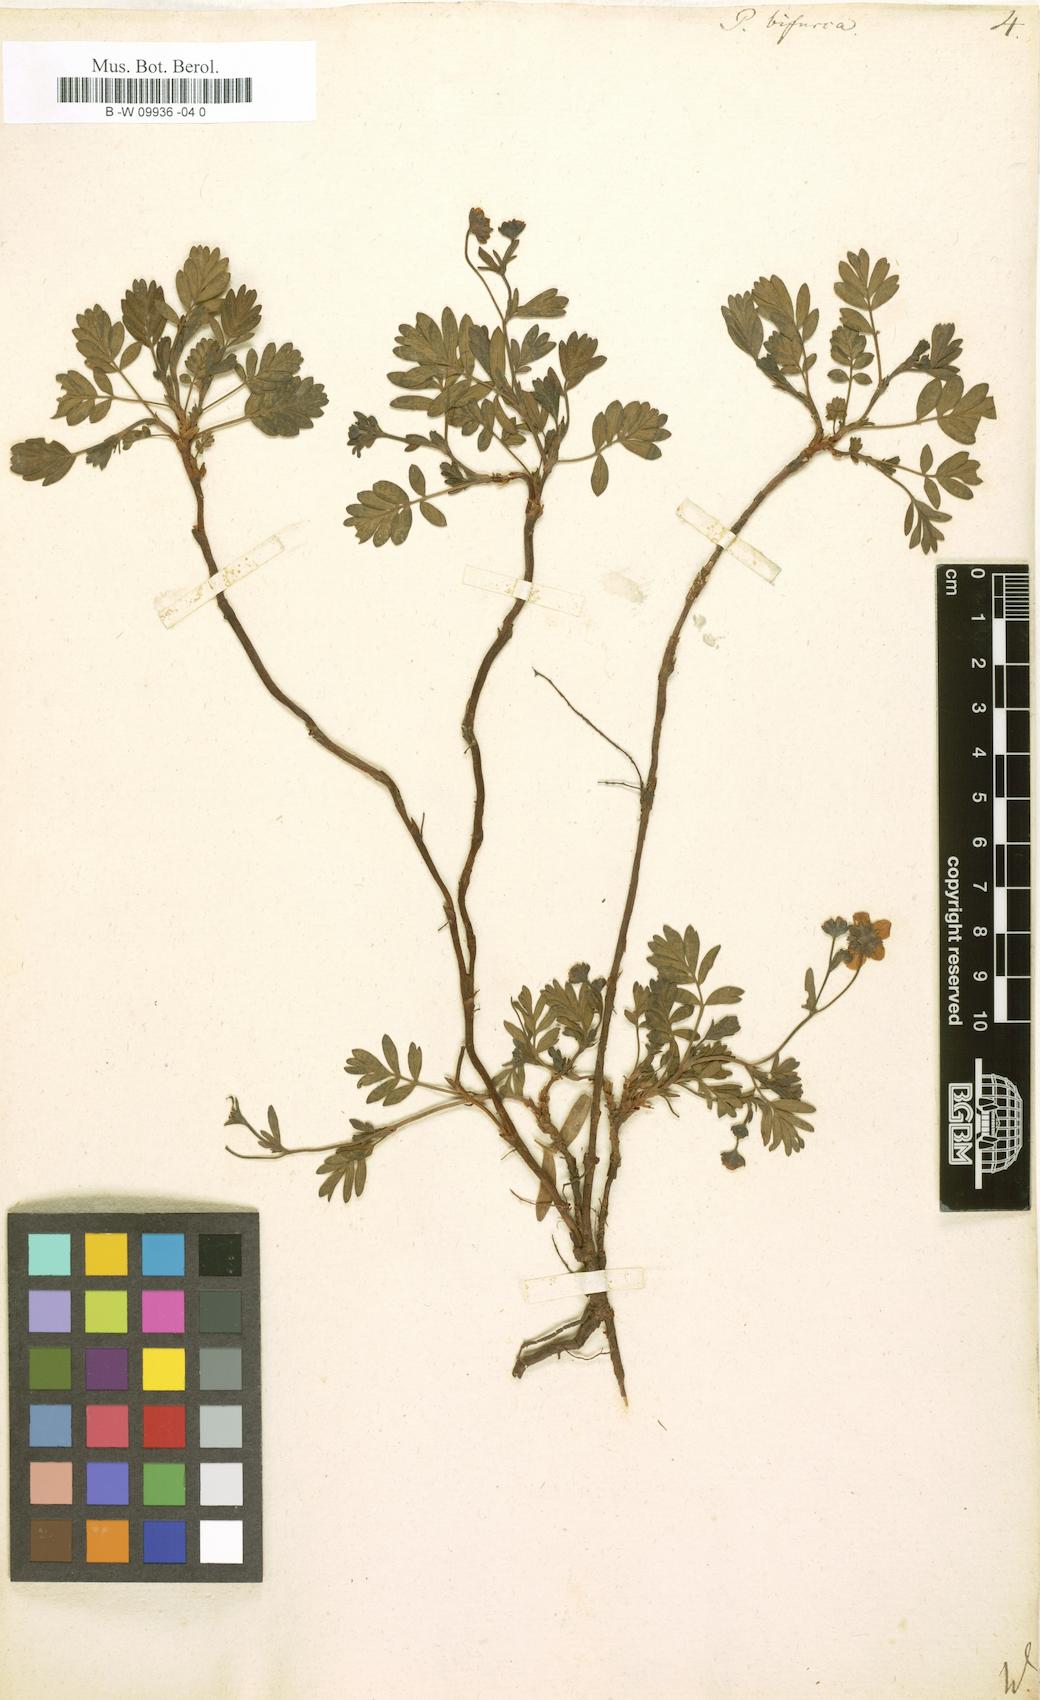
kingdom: Plantae
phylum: Tracheophyta
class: Magnoliopsida
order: Rosales
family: Rosaceae
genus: Sibbaldianthe
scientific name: Sibbaldianthe bifurca
